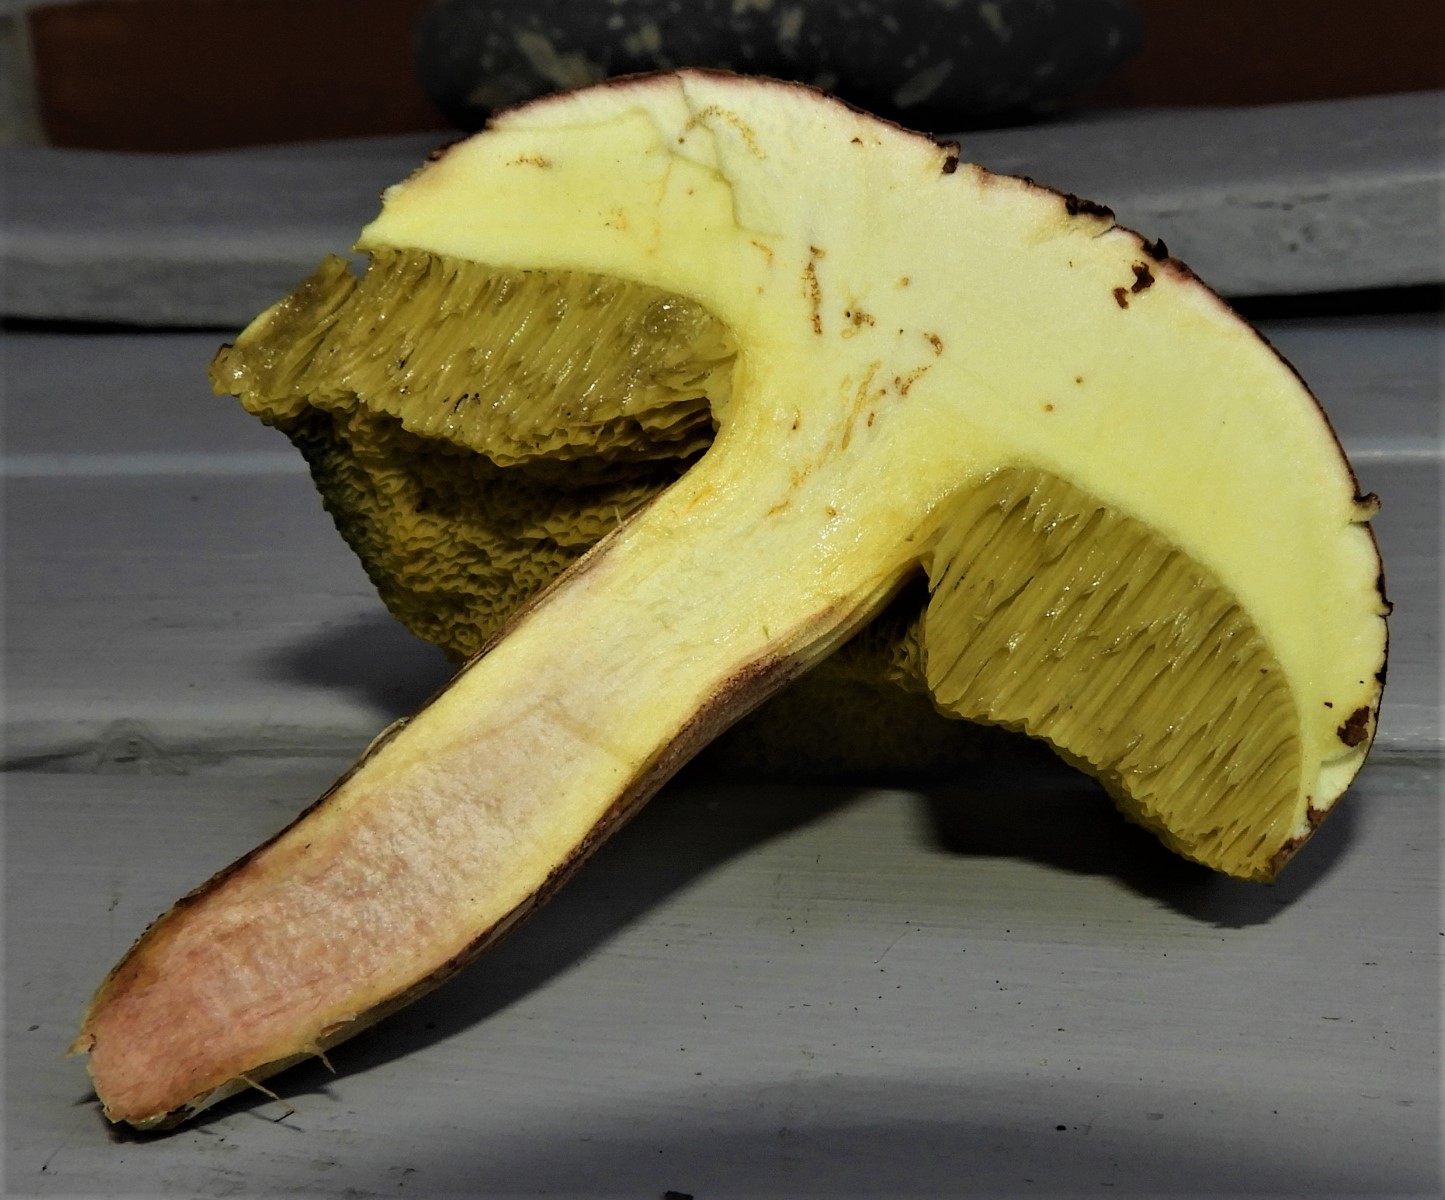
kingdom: Fungi
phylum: Basidiomycota
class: Agaricomycetes
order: Boletales
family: Boletaceae
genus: Xerocomus
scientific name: Xerocomus subtomentosus
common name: filtet rørhat
